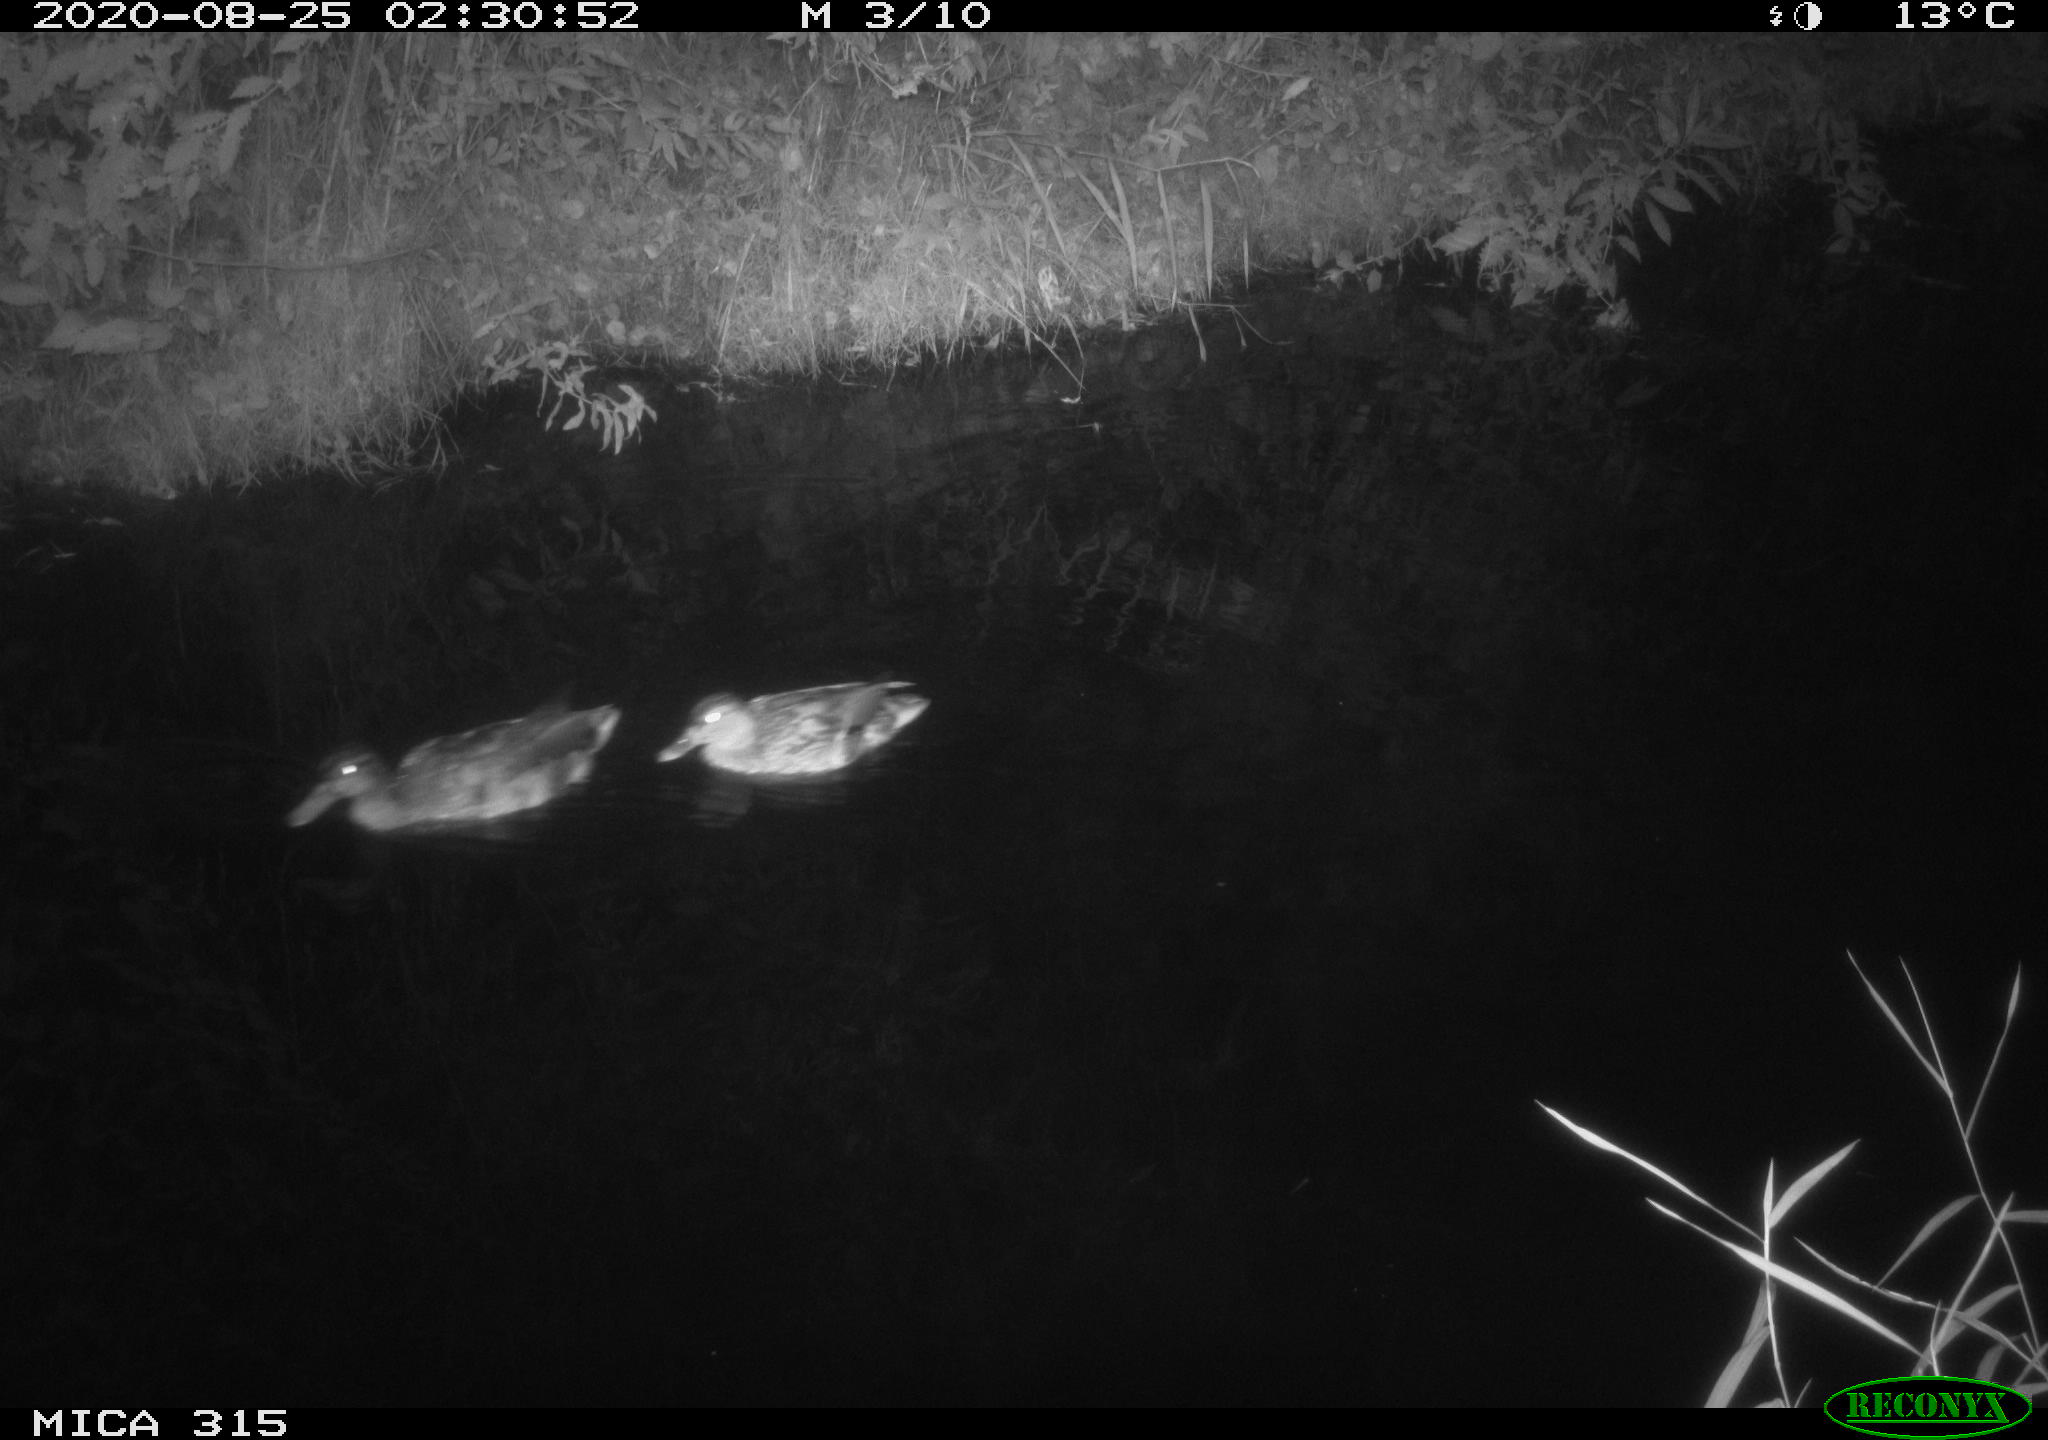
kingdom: Animalia
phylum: Chordata
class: Aves
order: Anseriformes
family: Anatidae
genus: Anas
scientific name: Anas platyrhynchos
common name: Mallard
